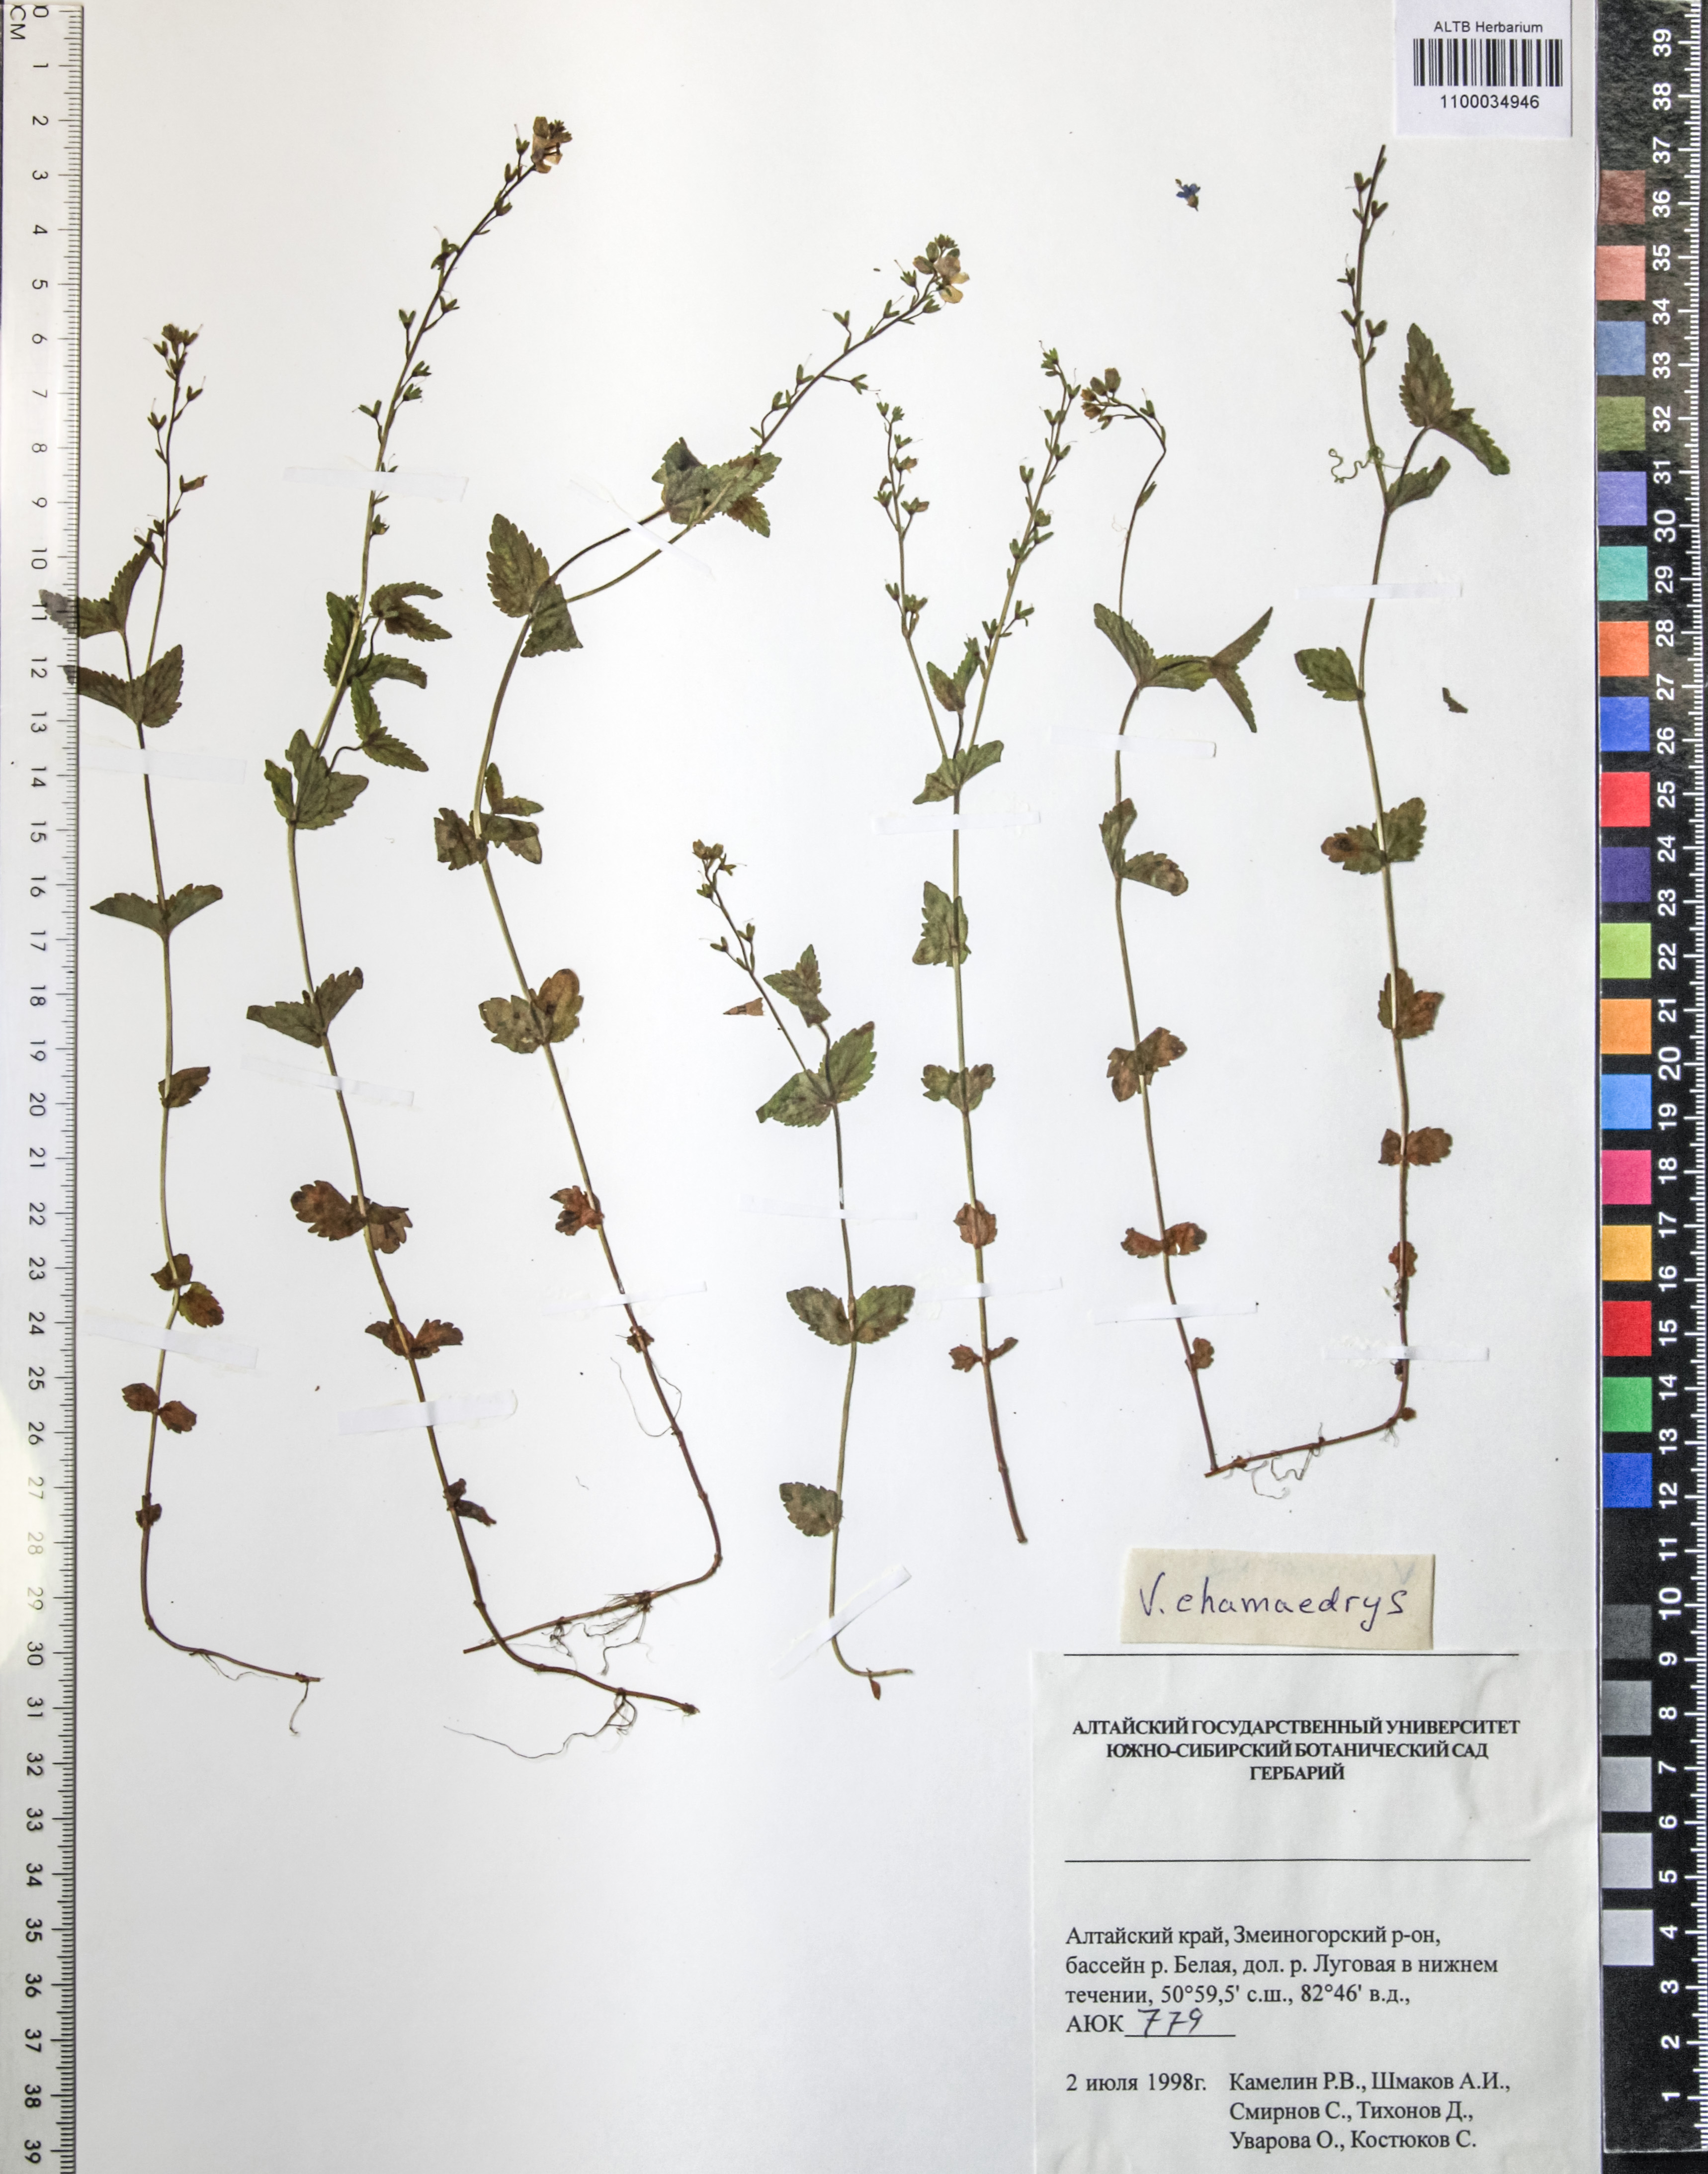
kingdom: Plantae
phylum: Tracheophyta
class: Magnoliopsida
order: Lamiales
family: Plantaginaceae
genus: Veronica
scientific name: Veronica chamaedrys
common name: Germander speedwell
